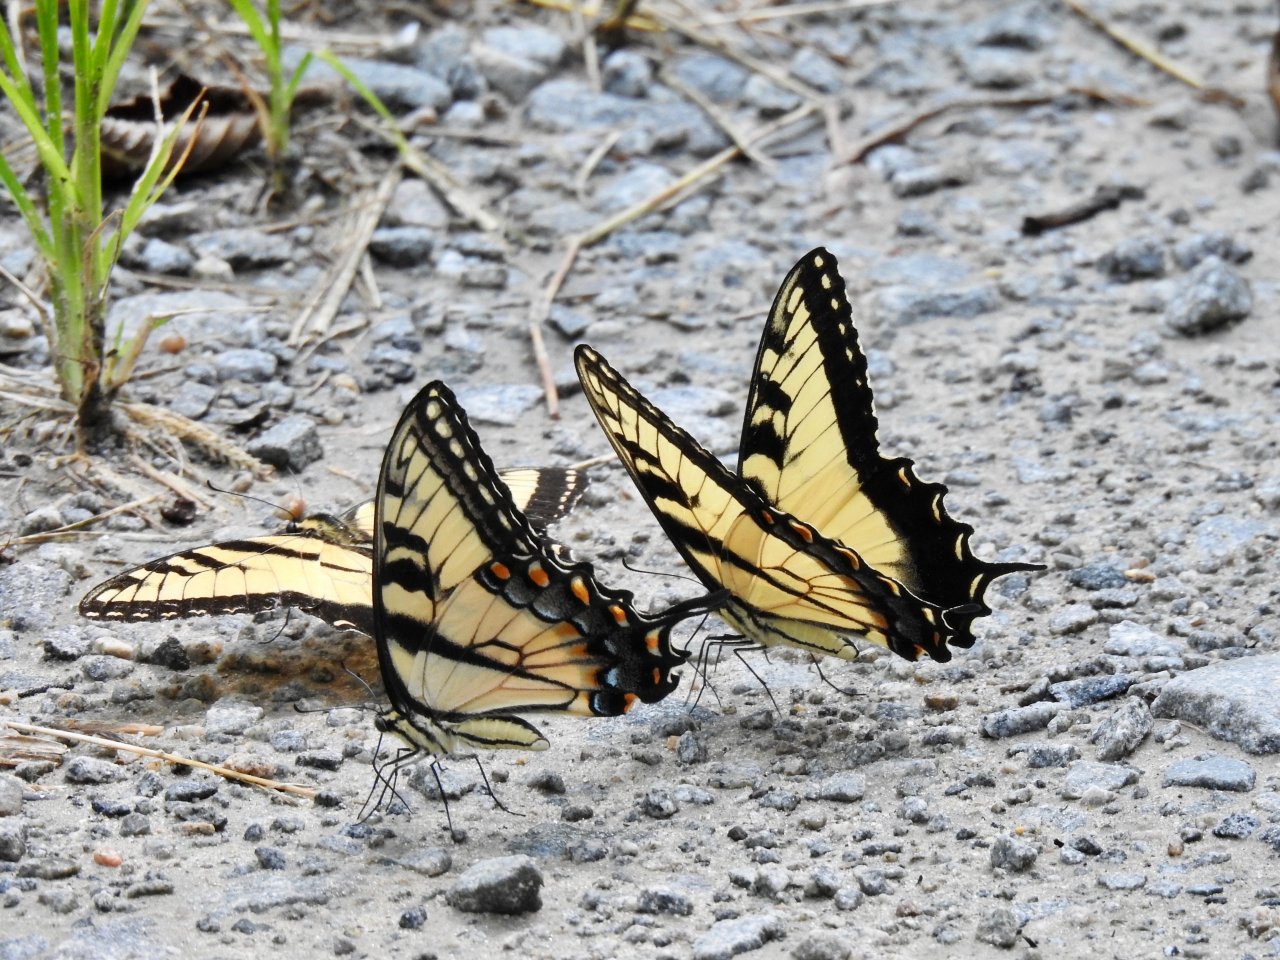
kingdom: Animalia
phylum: Arthropoda
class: Insecta
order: Lepidoptera
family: Papilionidae
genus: Pterourus
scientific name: Pterourus glaucus
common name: Eastern Tiger Swallowtail
